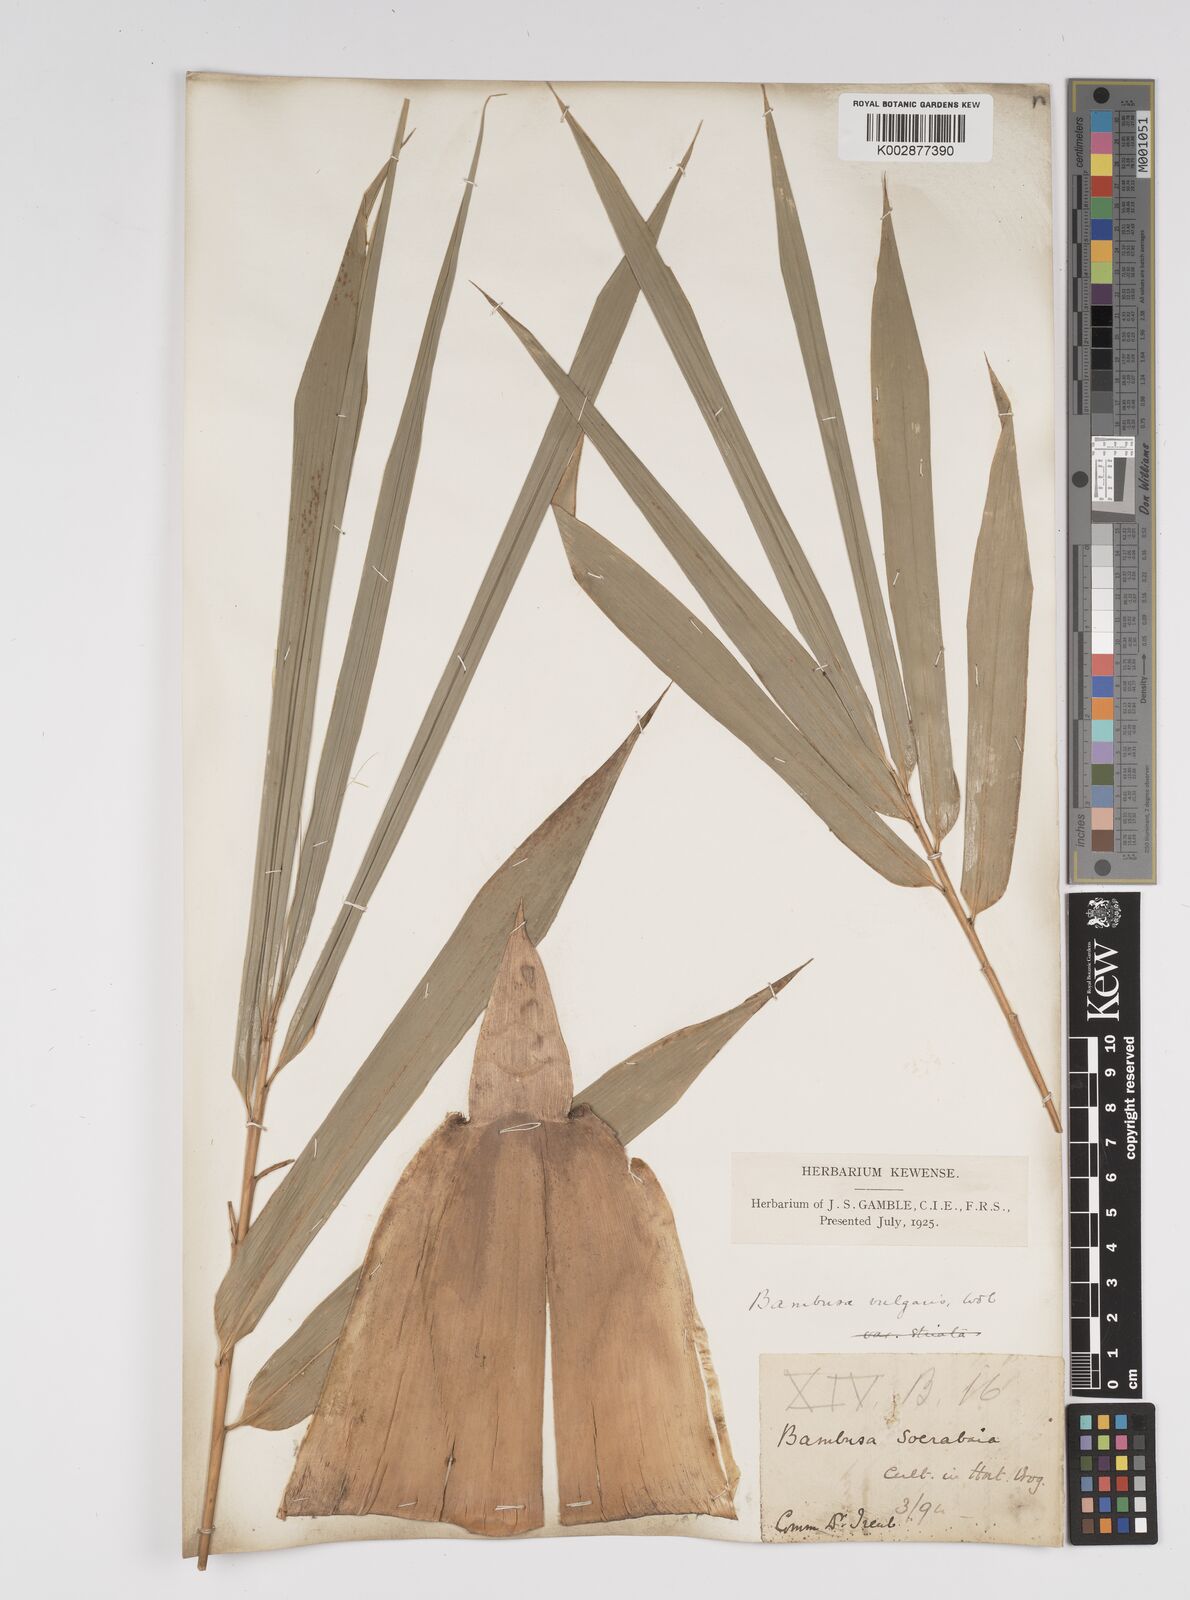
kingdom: Plantae
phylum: Tracheophyta
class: Liliopsida
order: Poales
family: Poaceae
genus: Bambusa
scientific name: Bambusa vulgaris
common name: Common bamboo
